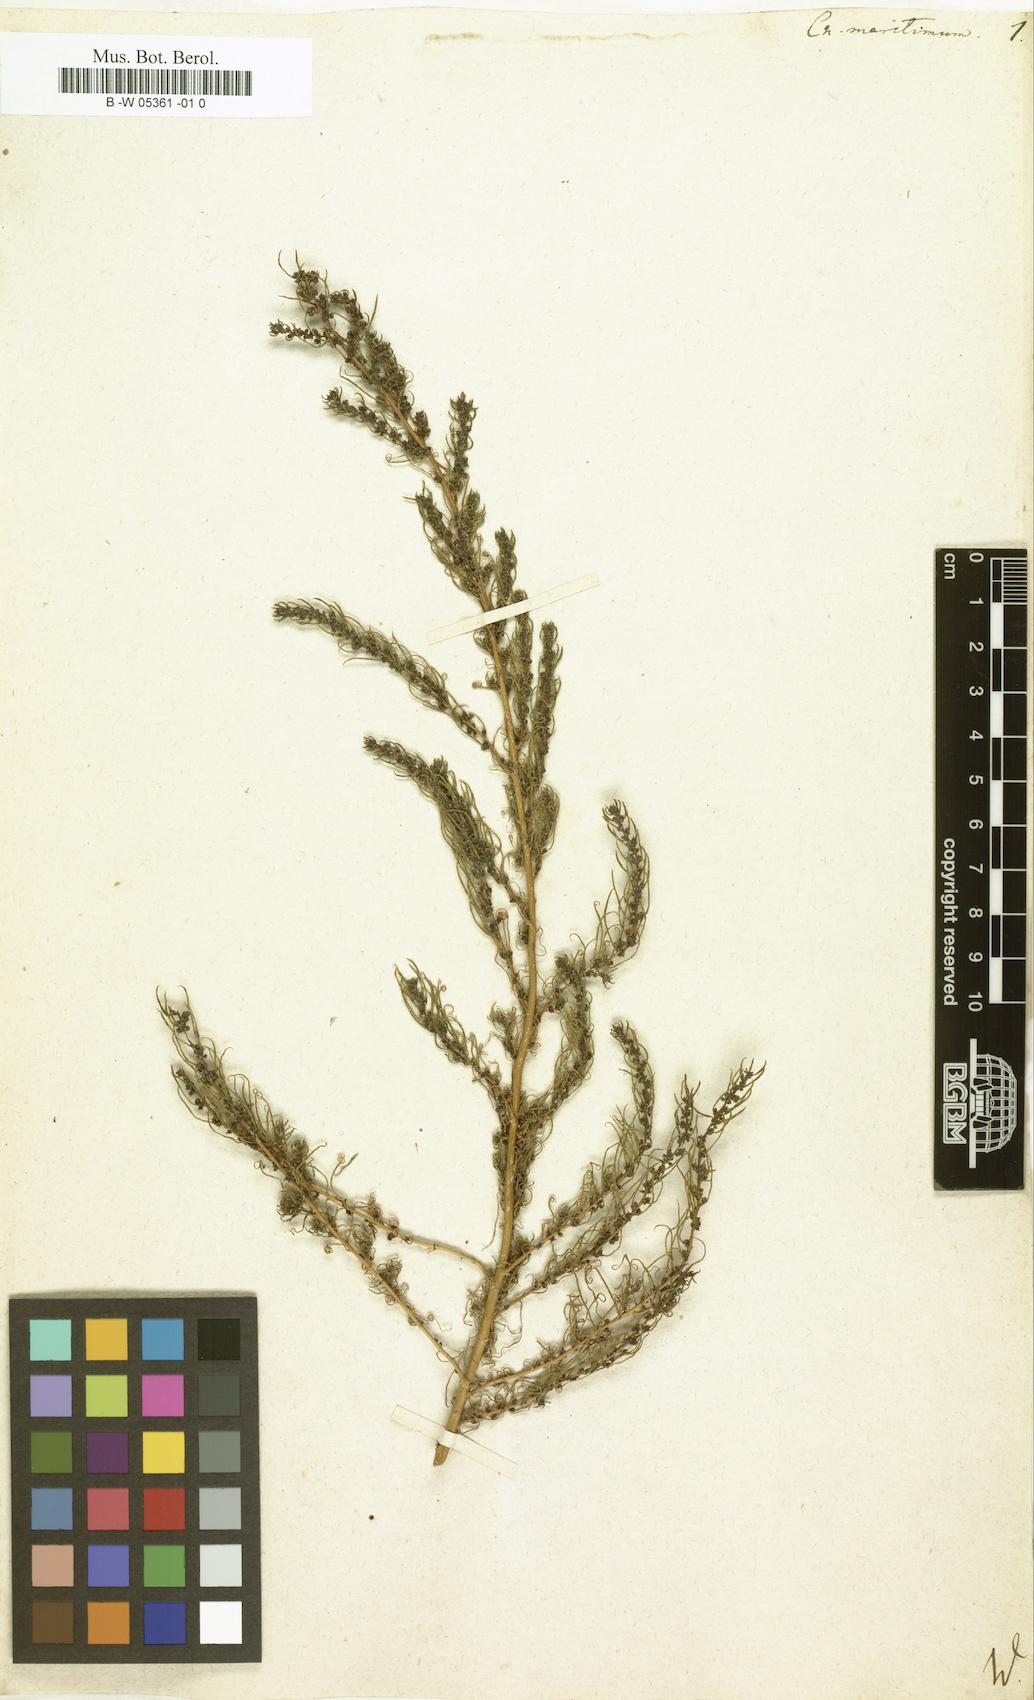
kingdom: Plantae
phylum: Tracheophyta
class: Magnoliopsida
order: Caryophyllales
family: Amaranthaceae
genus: Suaeda
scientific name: Suaeda
